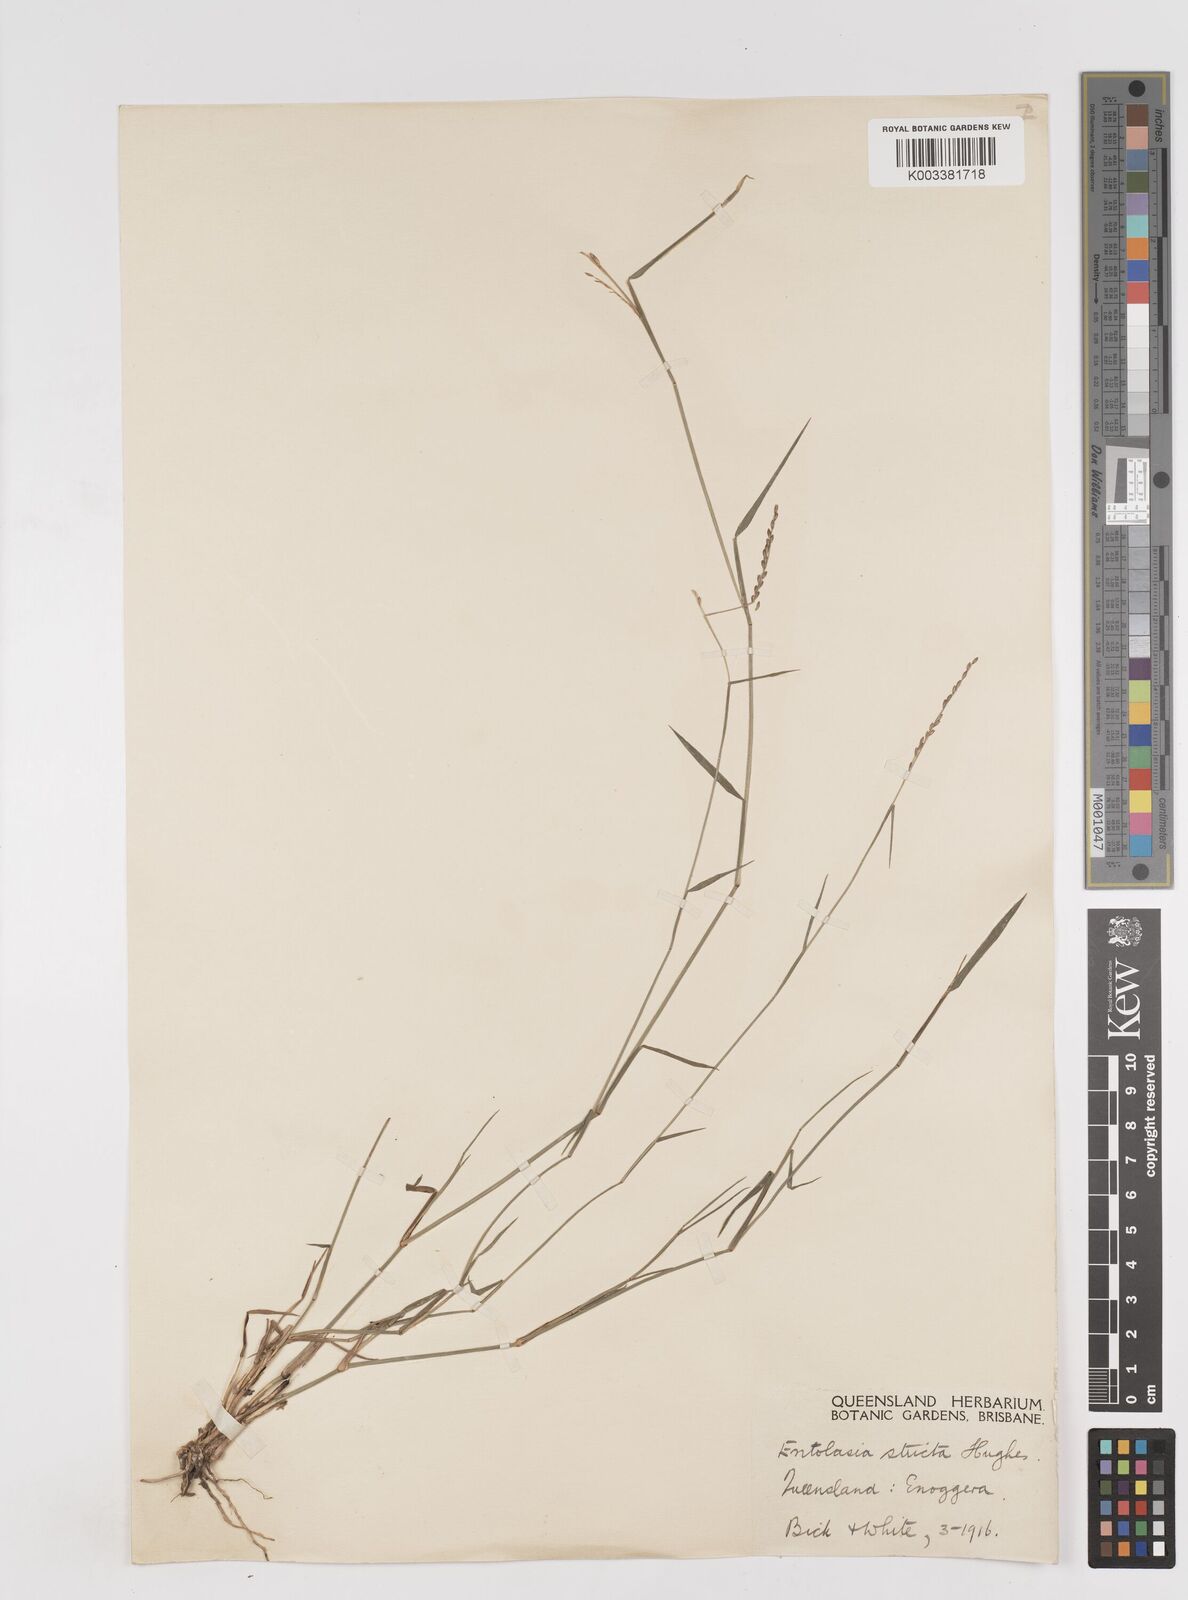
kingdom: Plantae
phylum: Tracheophyta
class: Liliopsida
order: Poales
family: Poaceae
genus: Entolasia
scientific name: Entolasia stricta
